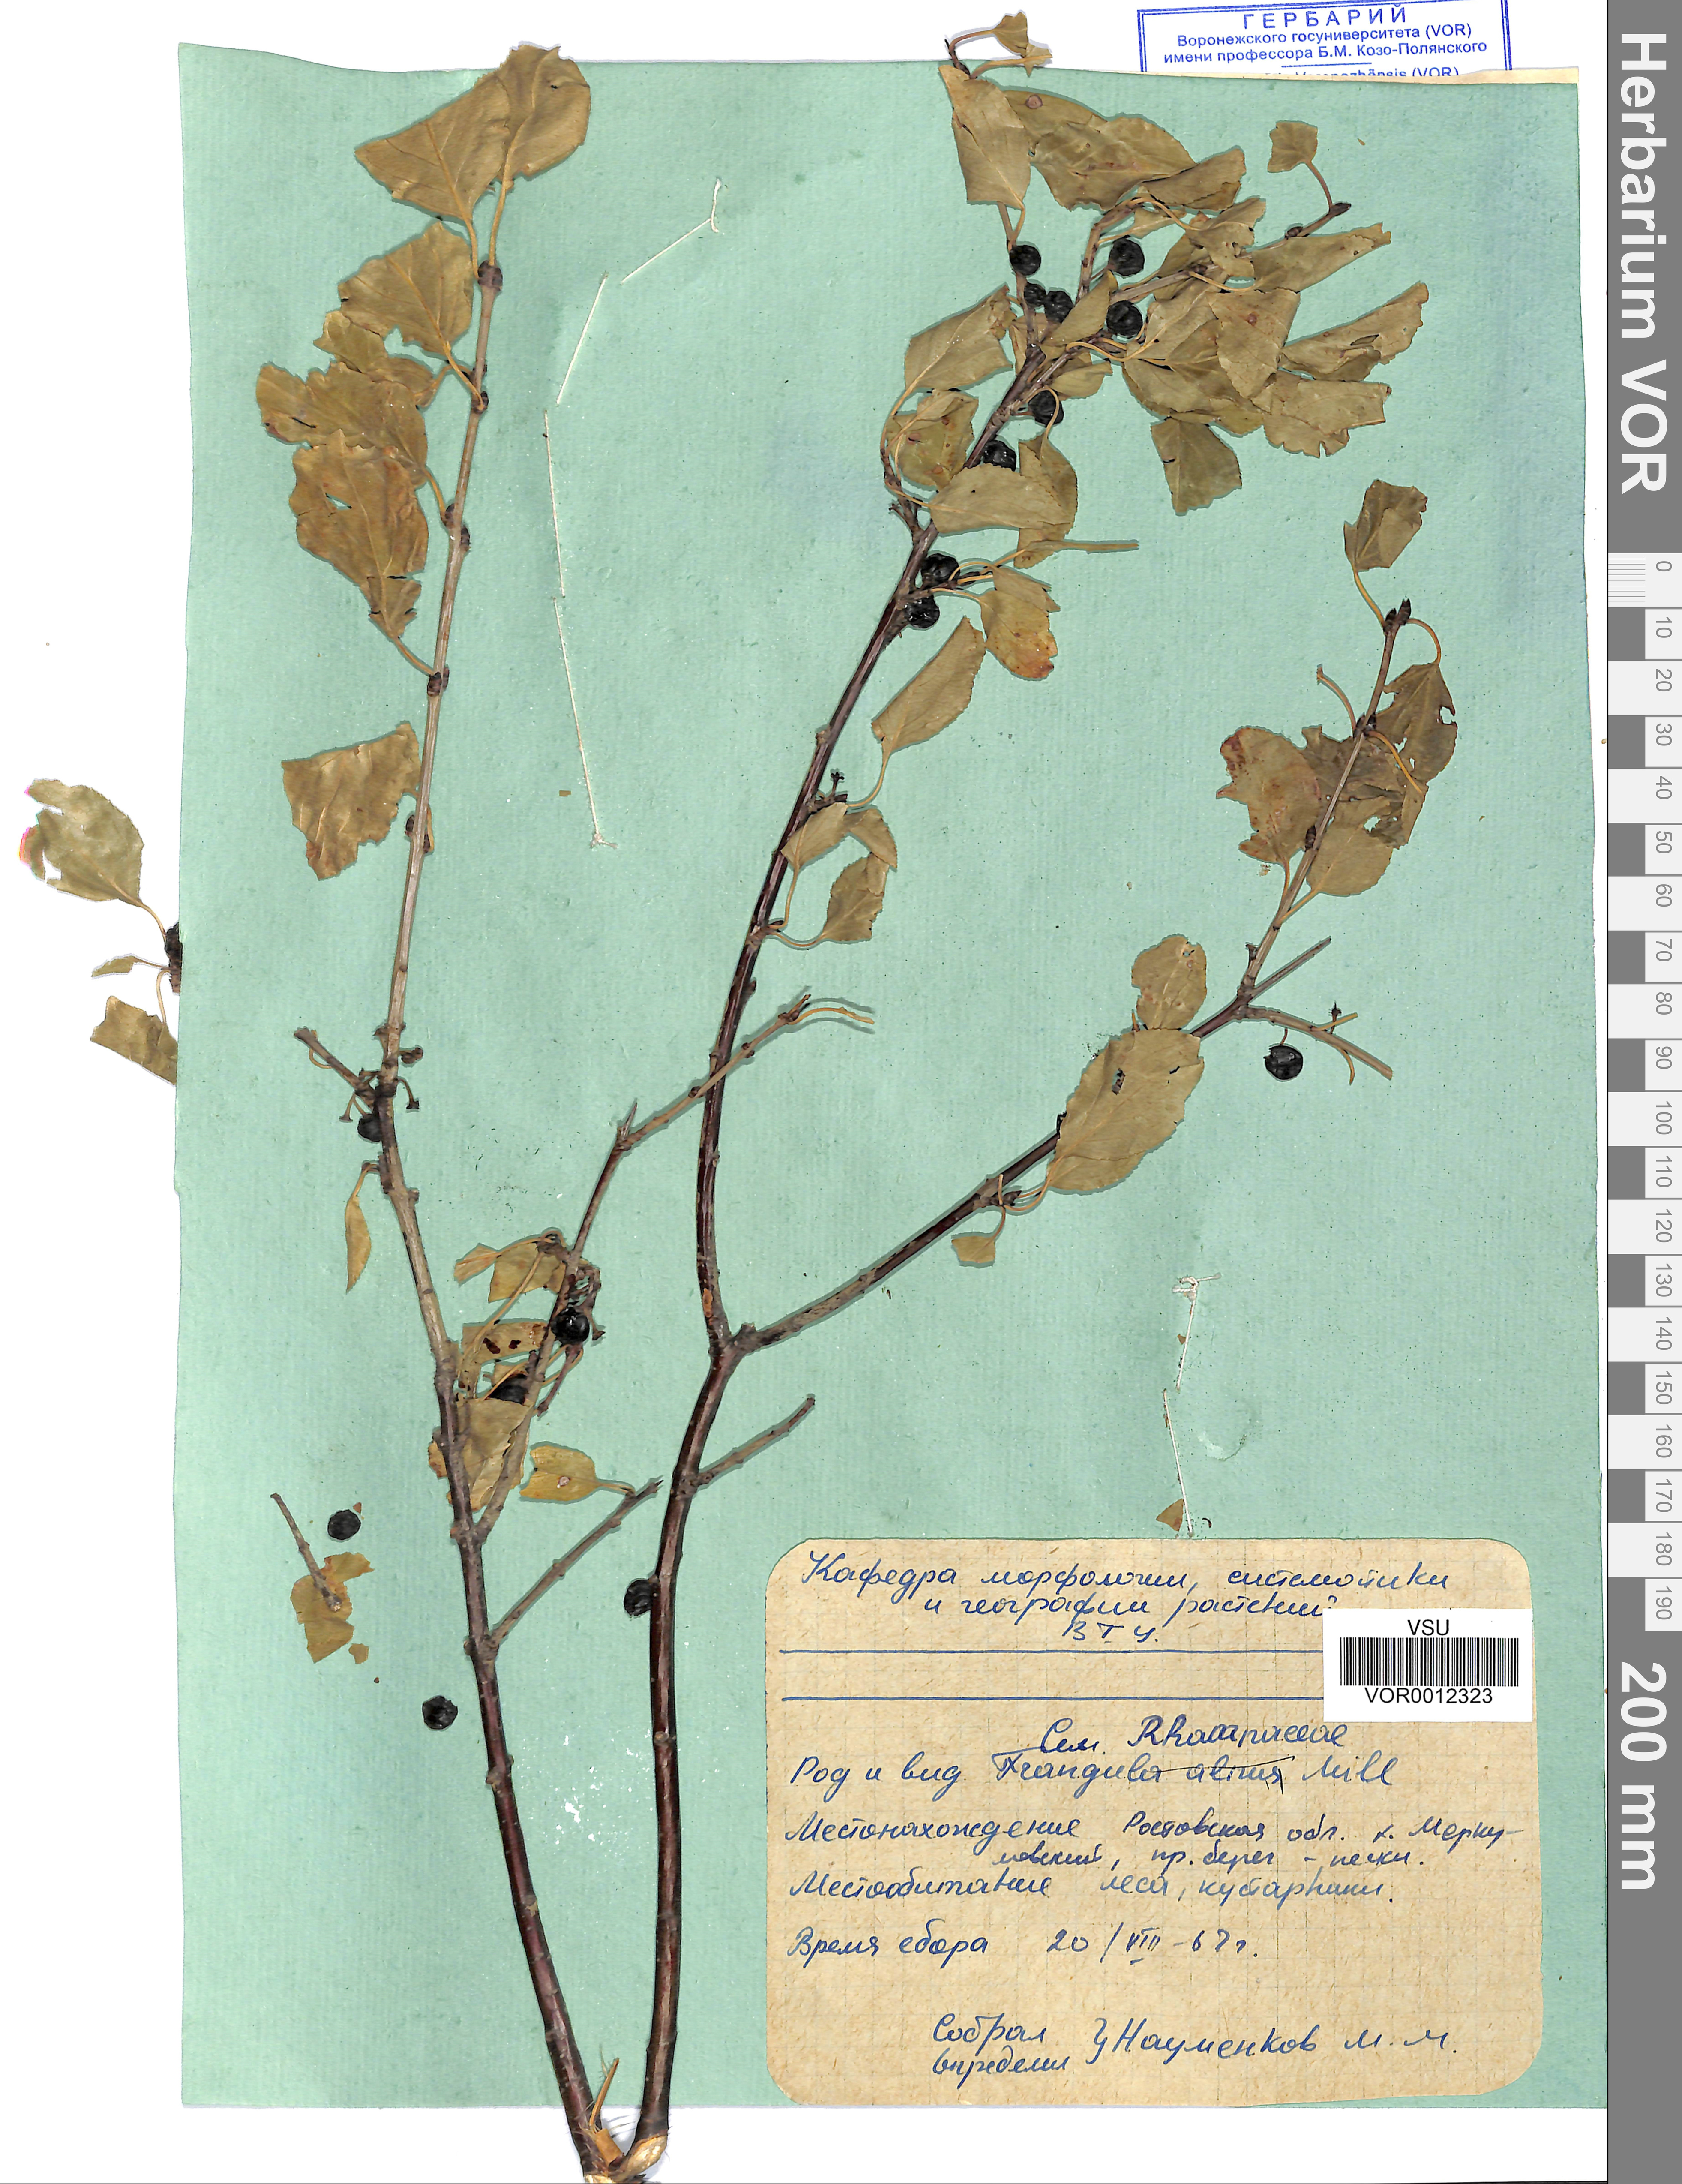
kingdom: Plantae
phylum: Tracheophyta
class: Magnoliopsida
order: Rosales
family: Rhamnaceae
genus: Rhamnus
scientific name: Rhamnus cathartica
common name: Common buckthorn
